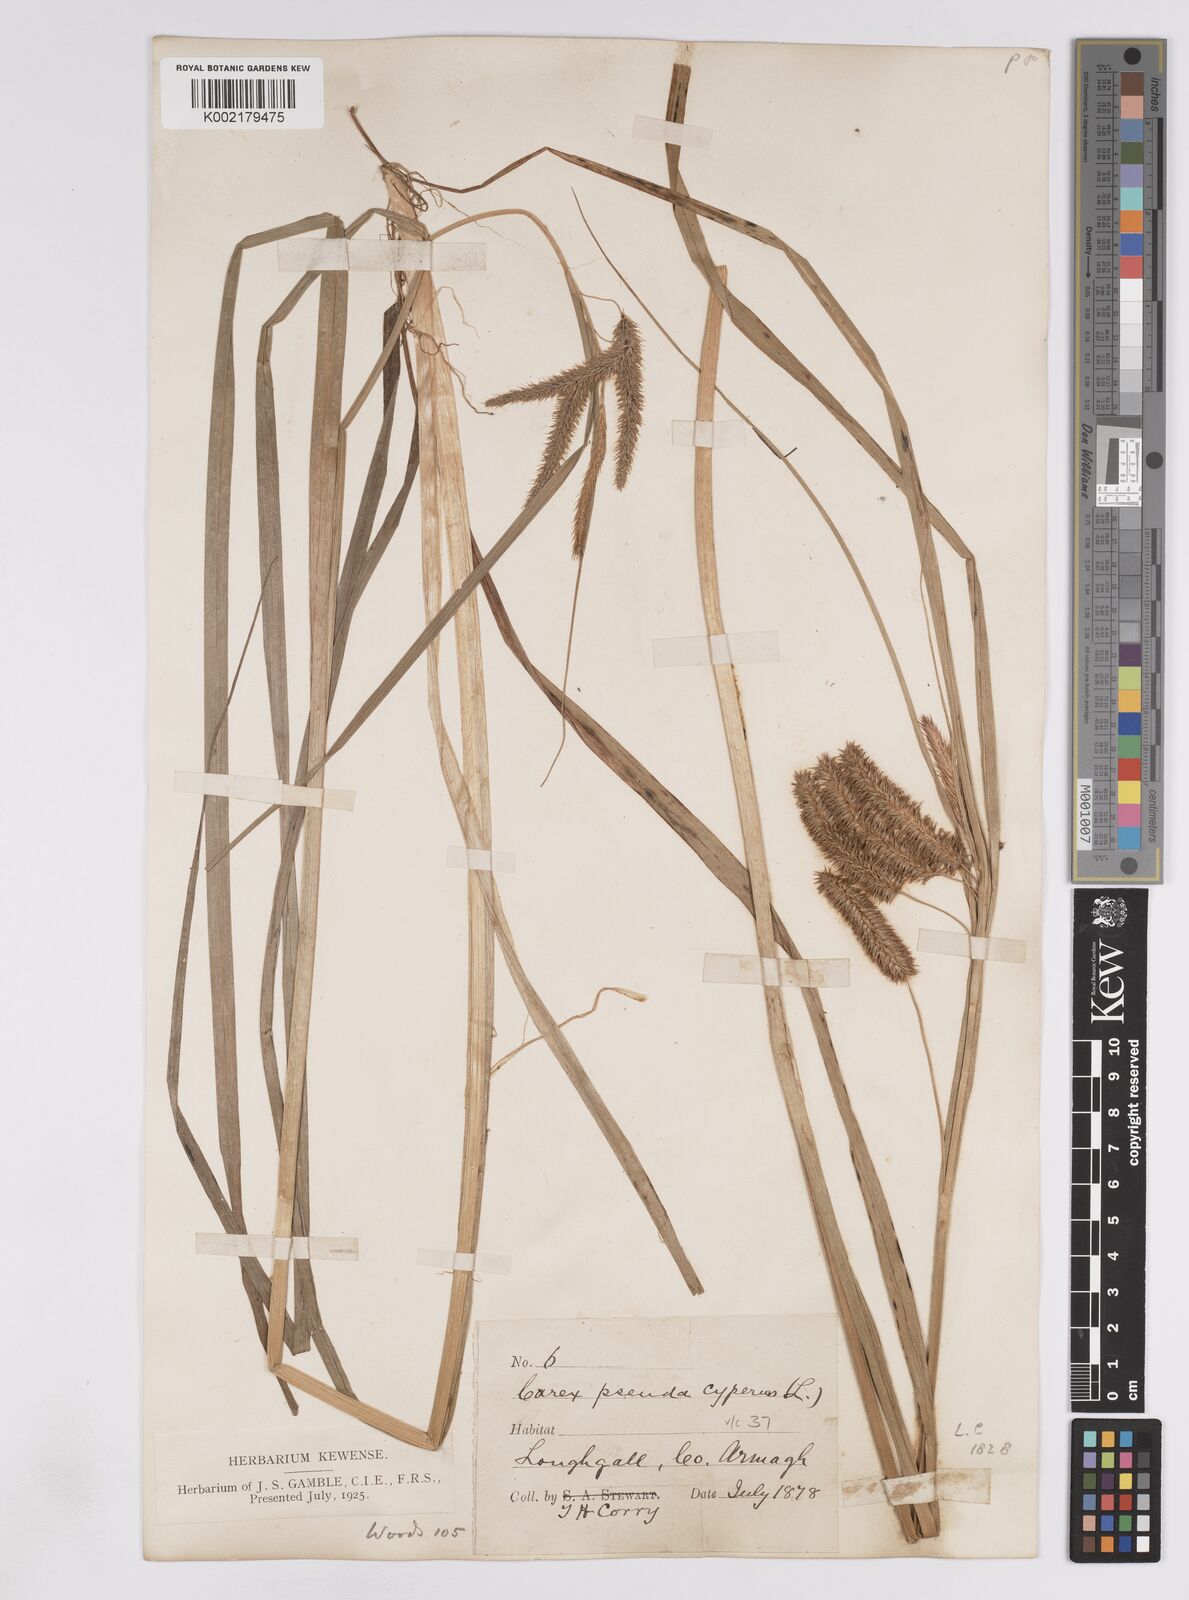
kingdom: Plantae
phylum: Tracheophyta
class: Liliopsida
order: Poales
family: Cyperaceae
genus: Carex
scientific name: Carex pseudocyperus
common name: Cyperus sedge
